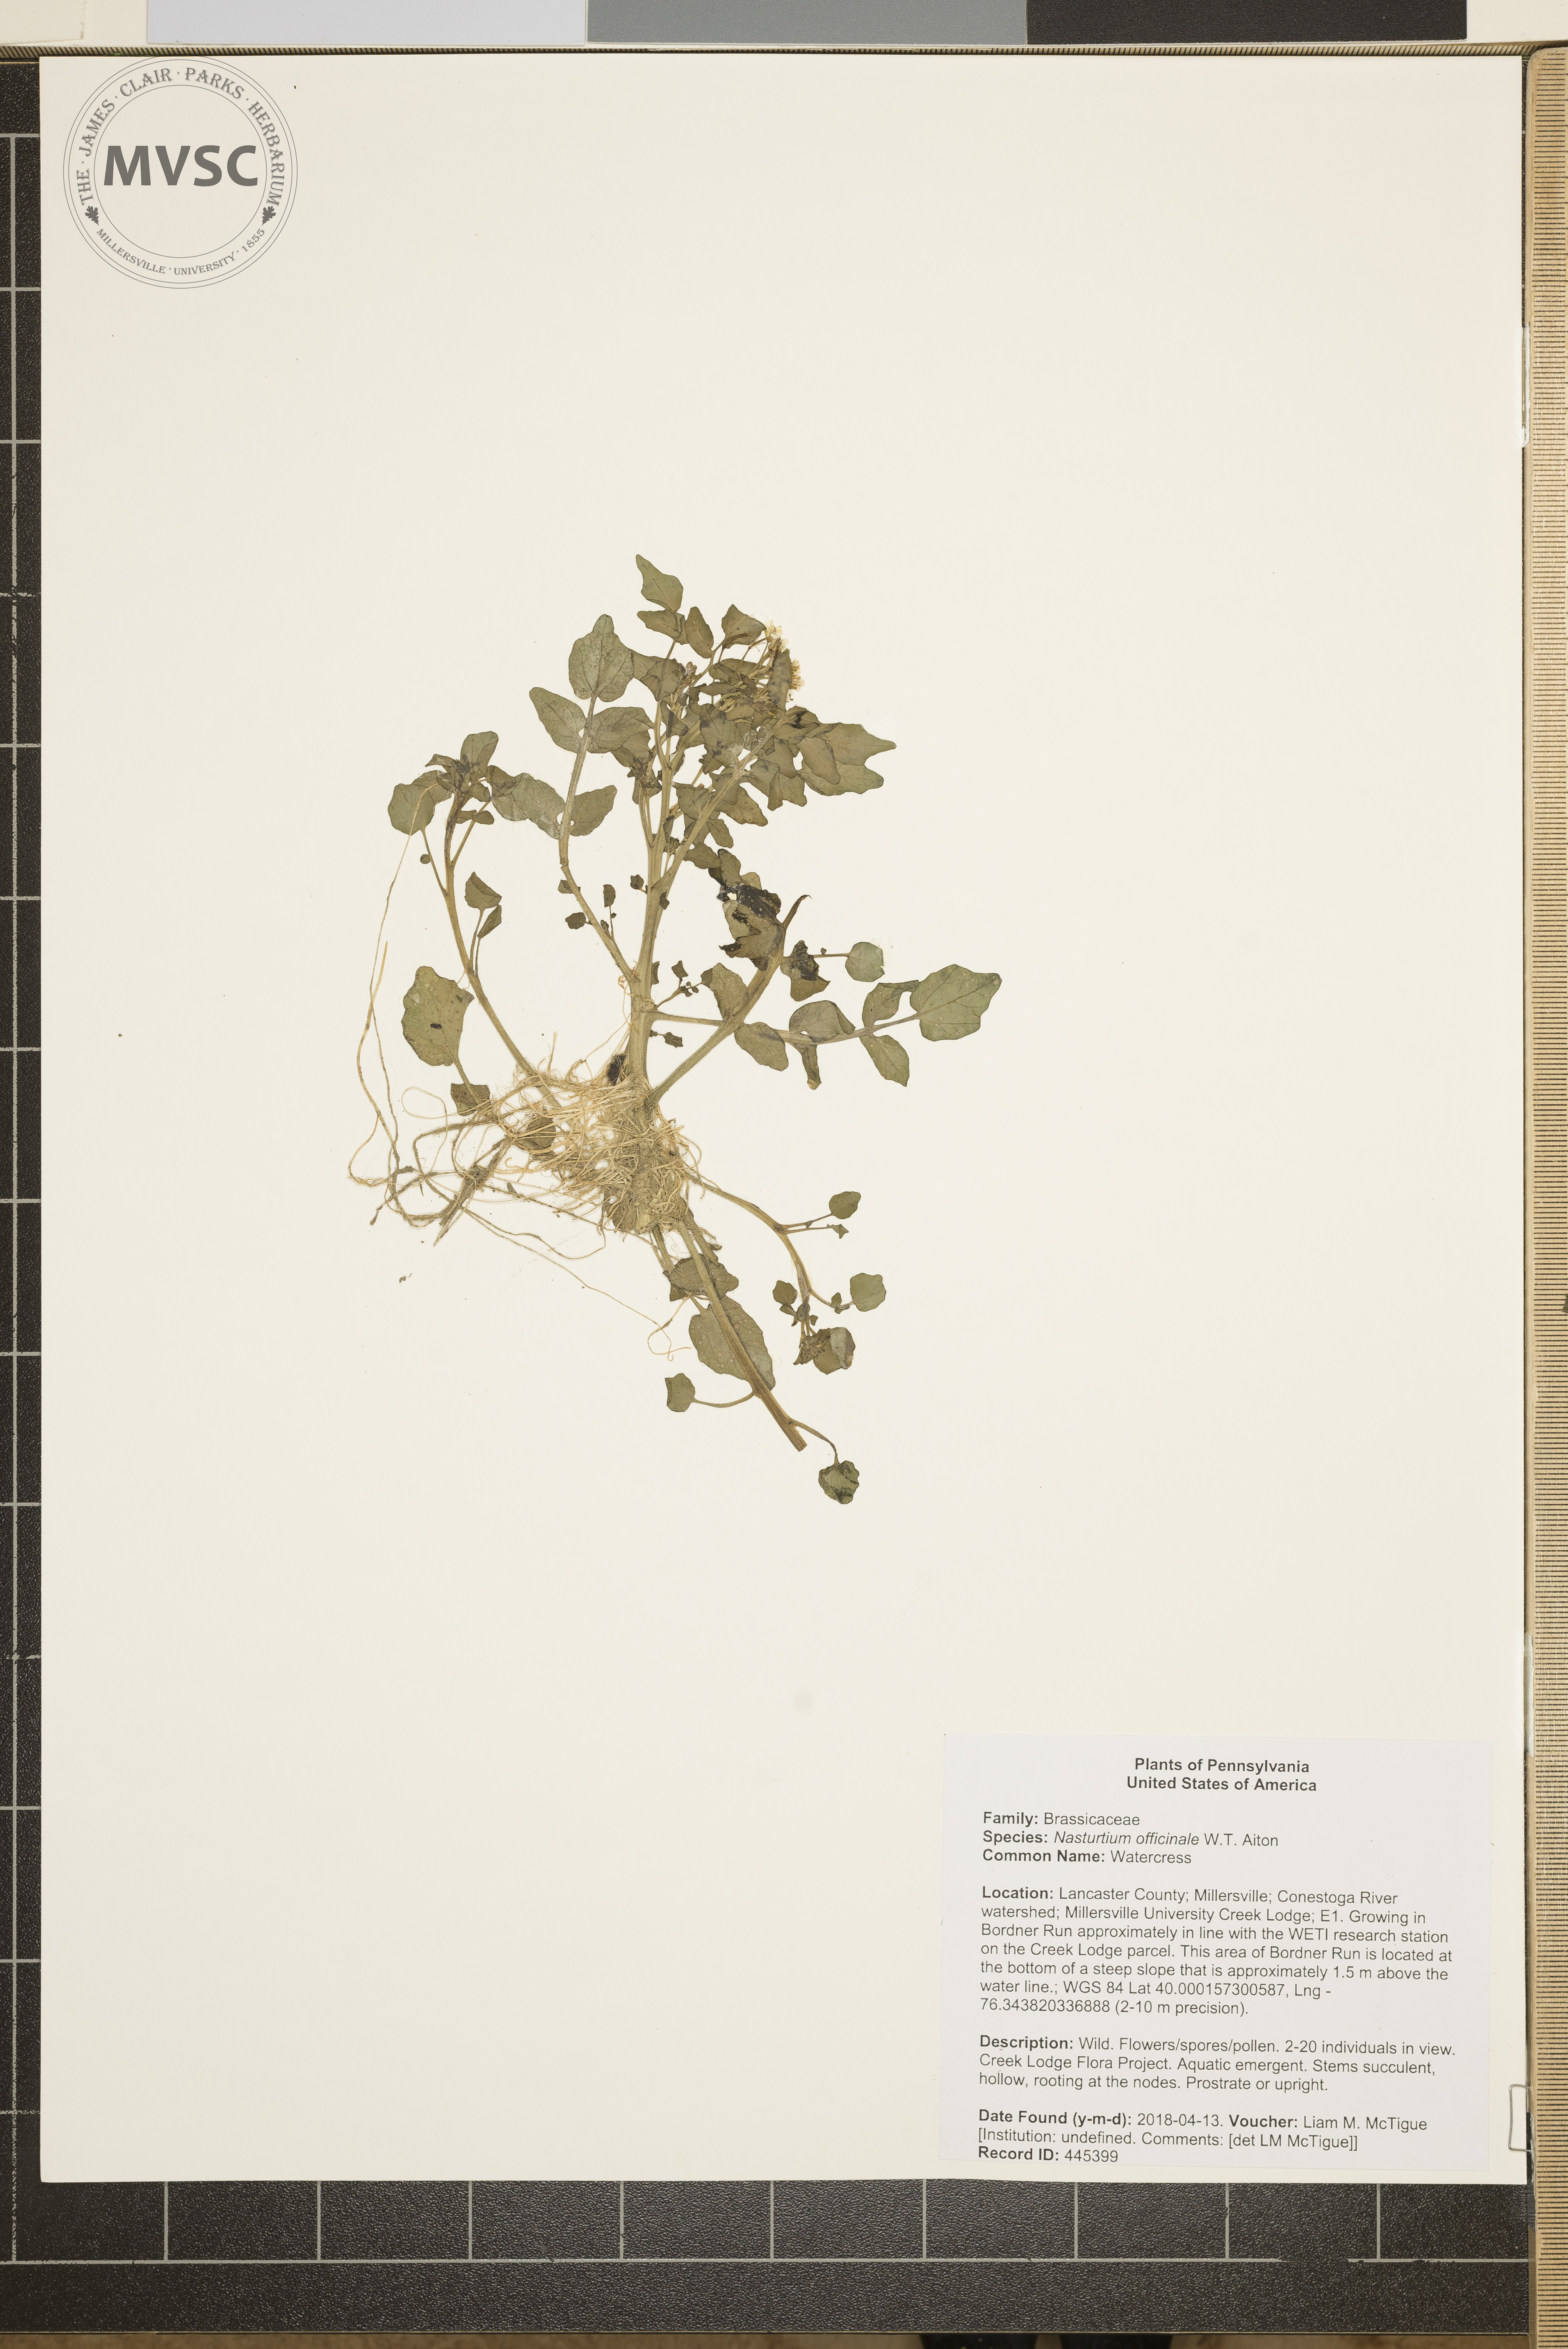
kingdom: Plantae
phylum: Tracheophyta
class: Magnoliopsida
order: Brassicales
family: Brassicaceae
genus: Nasturtium
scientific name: Nasturtium officinale
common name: Watercress
